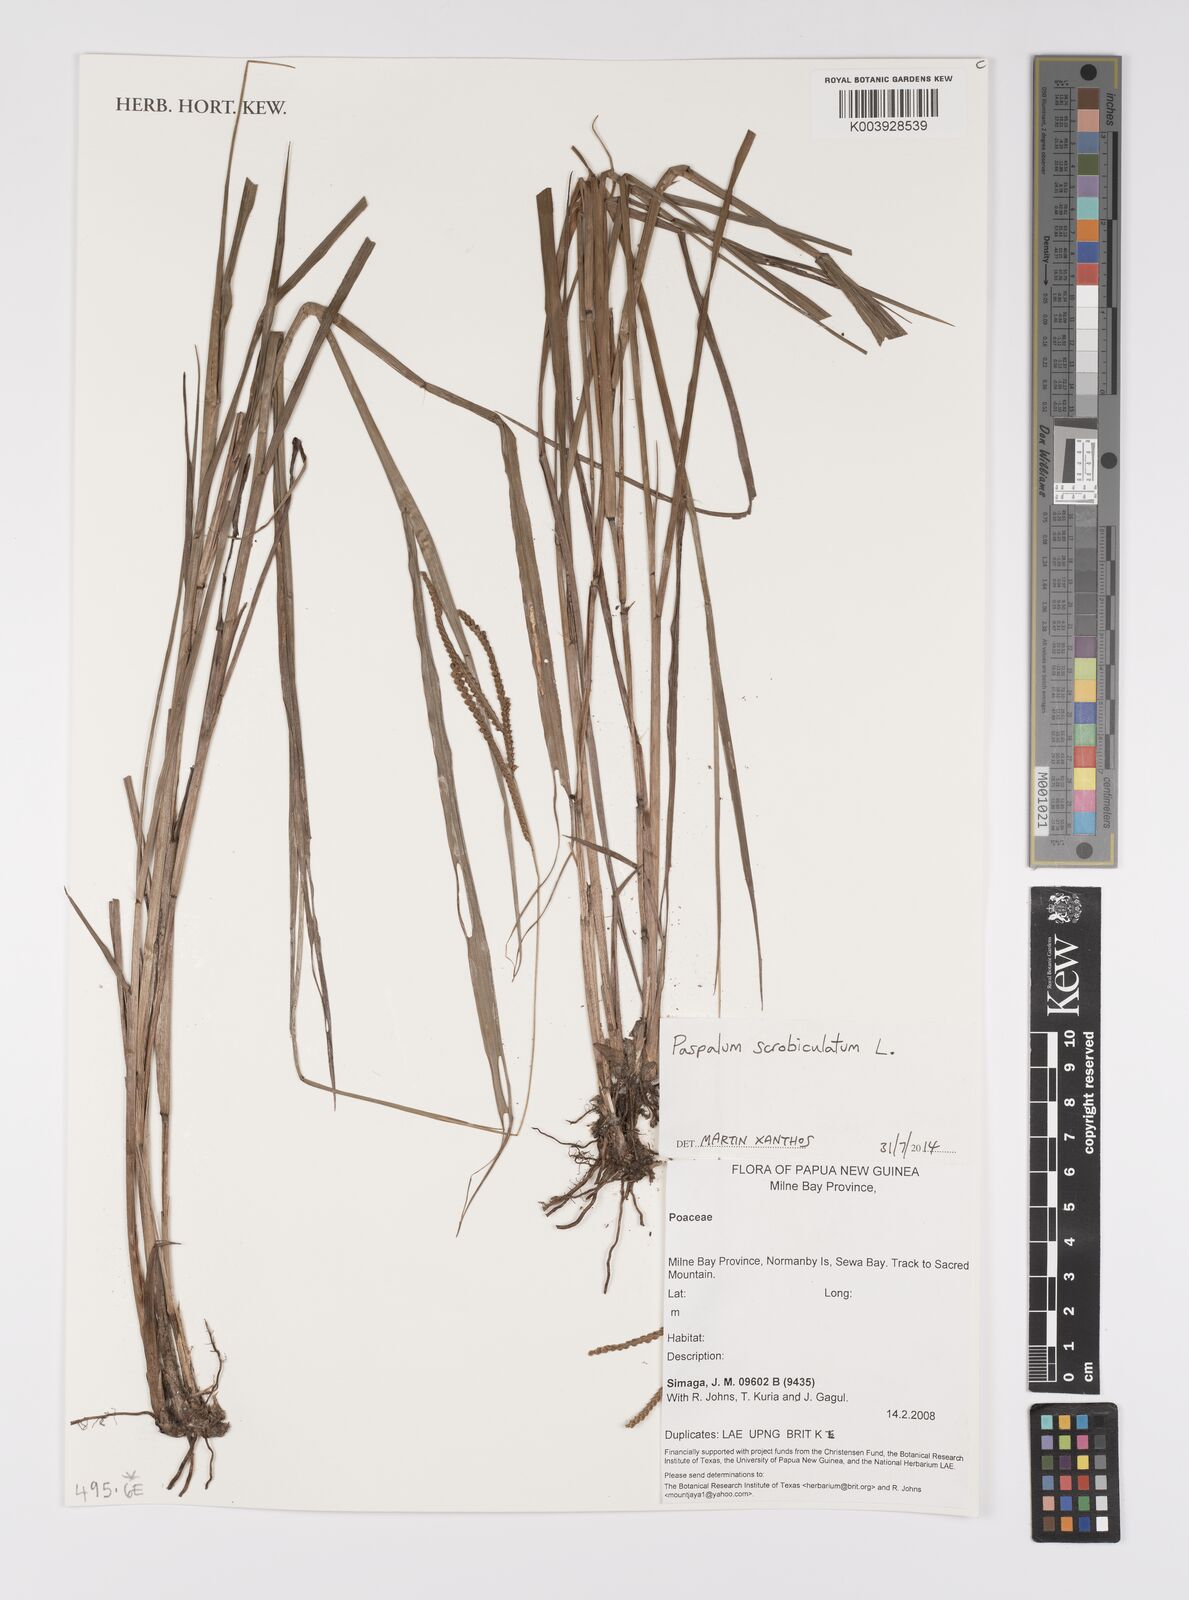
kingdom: Plantae
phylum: Tracheophyta
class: Liliopsida
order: Poales
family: Poaceae
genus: Paspalum
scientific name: Paspalum scrobiculatum
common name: Kodo millet
